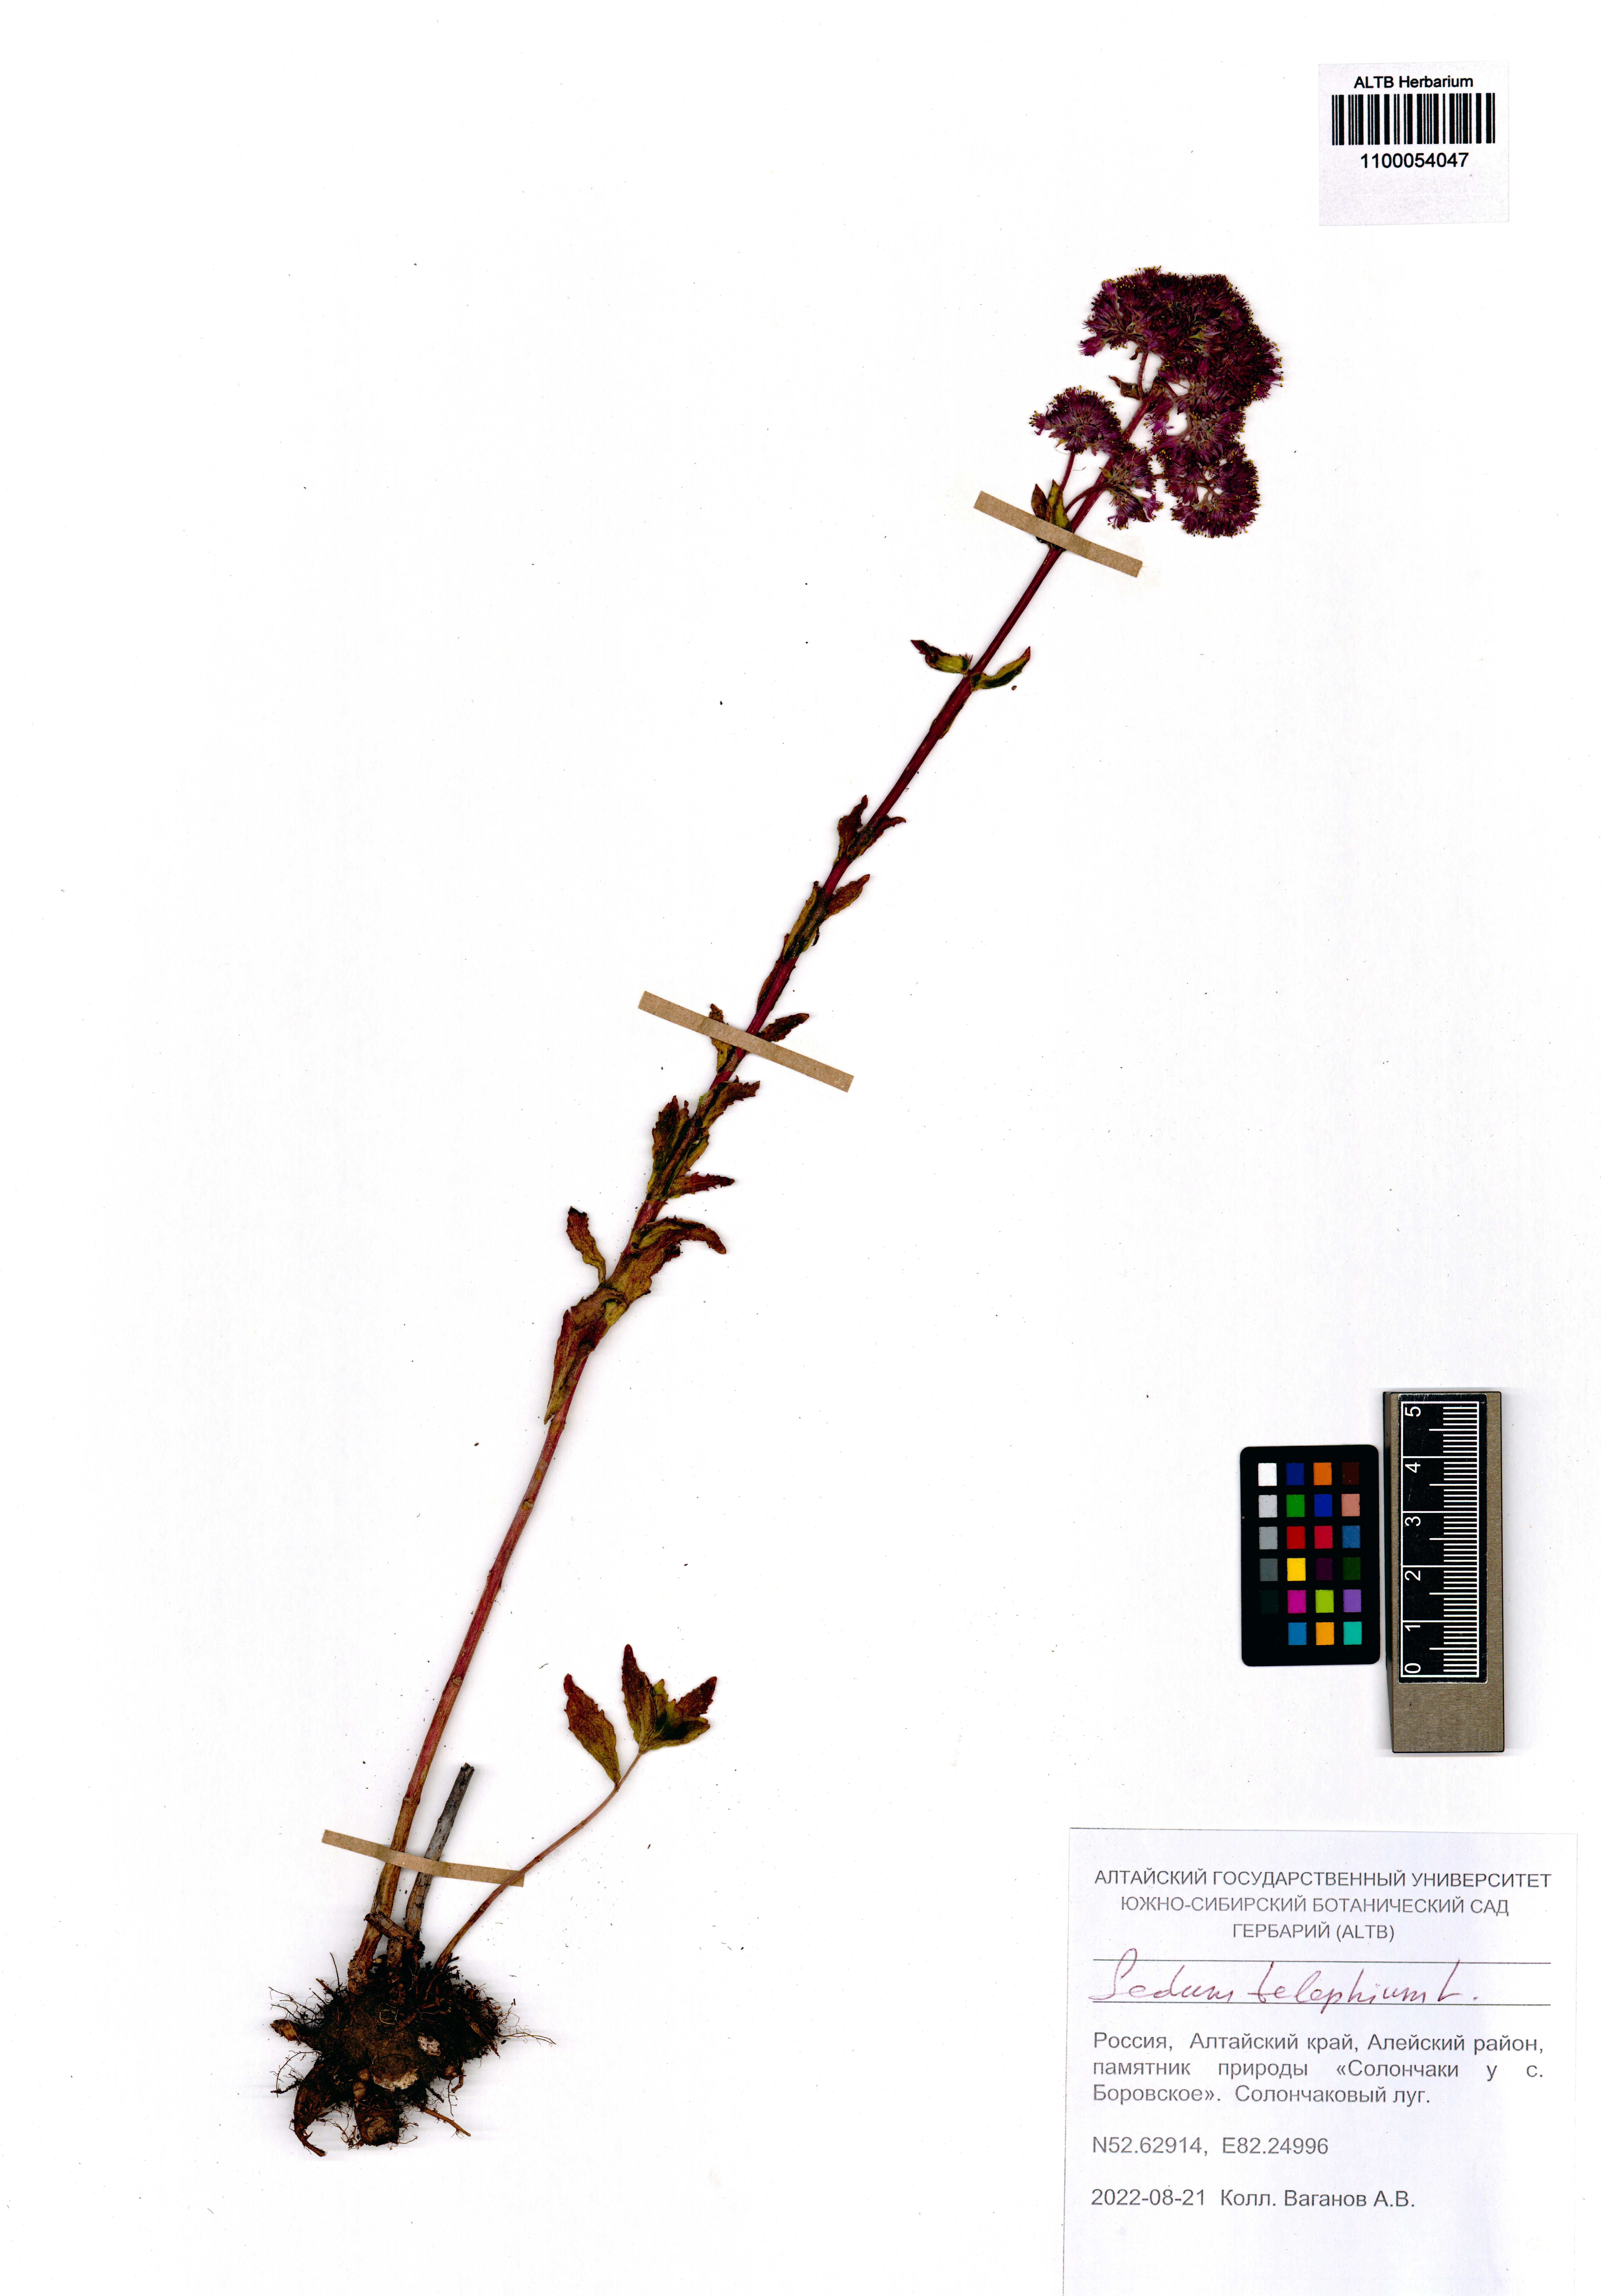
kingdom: Plantae
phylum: Tracheophyta
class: Magnoliopsida
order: Saxifragales
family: Crassulaceae
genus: Hylotelephium
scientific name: Hylotelephium telephium
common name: Live-forever
